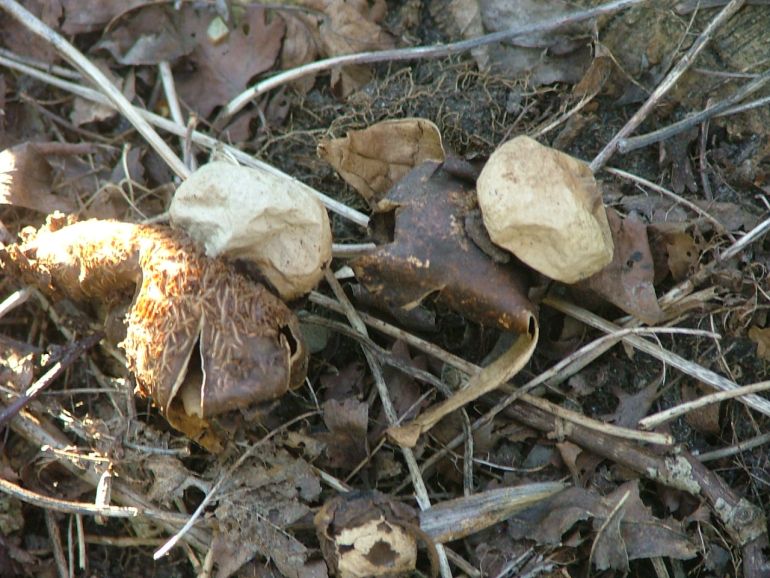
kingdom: Fungi
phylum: Basidiomycota
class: Agaricomycetes
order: Geastrales
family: Geastraceae
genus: Geastrum
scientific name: Geastrum michelianum
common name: kødet stjernebold
